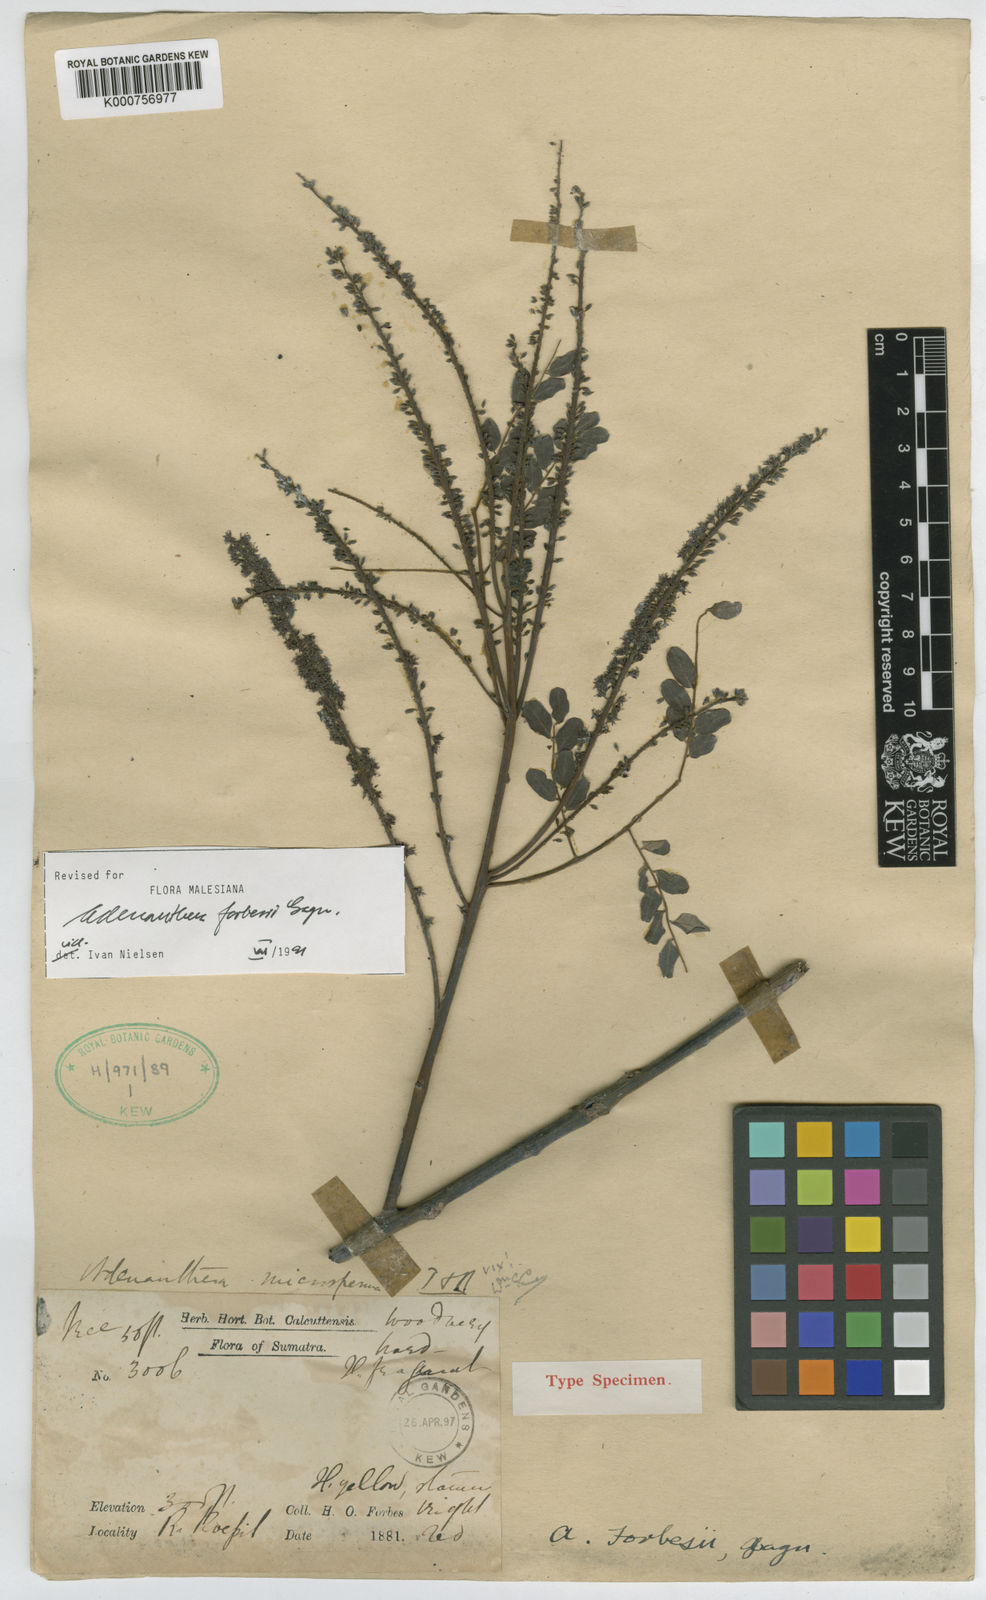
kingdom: Plantae
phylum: Tracheophyta
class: Magnoliopsida
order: Fabales
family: Fabaceae
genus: Adenanthera
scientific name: Adenanthera forbesii
